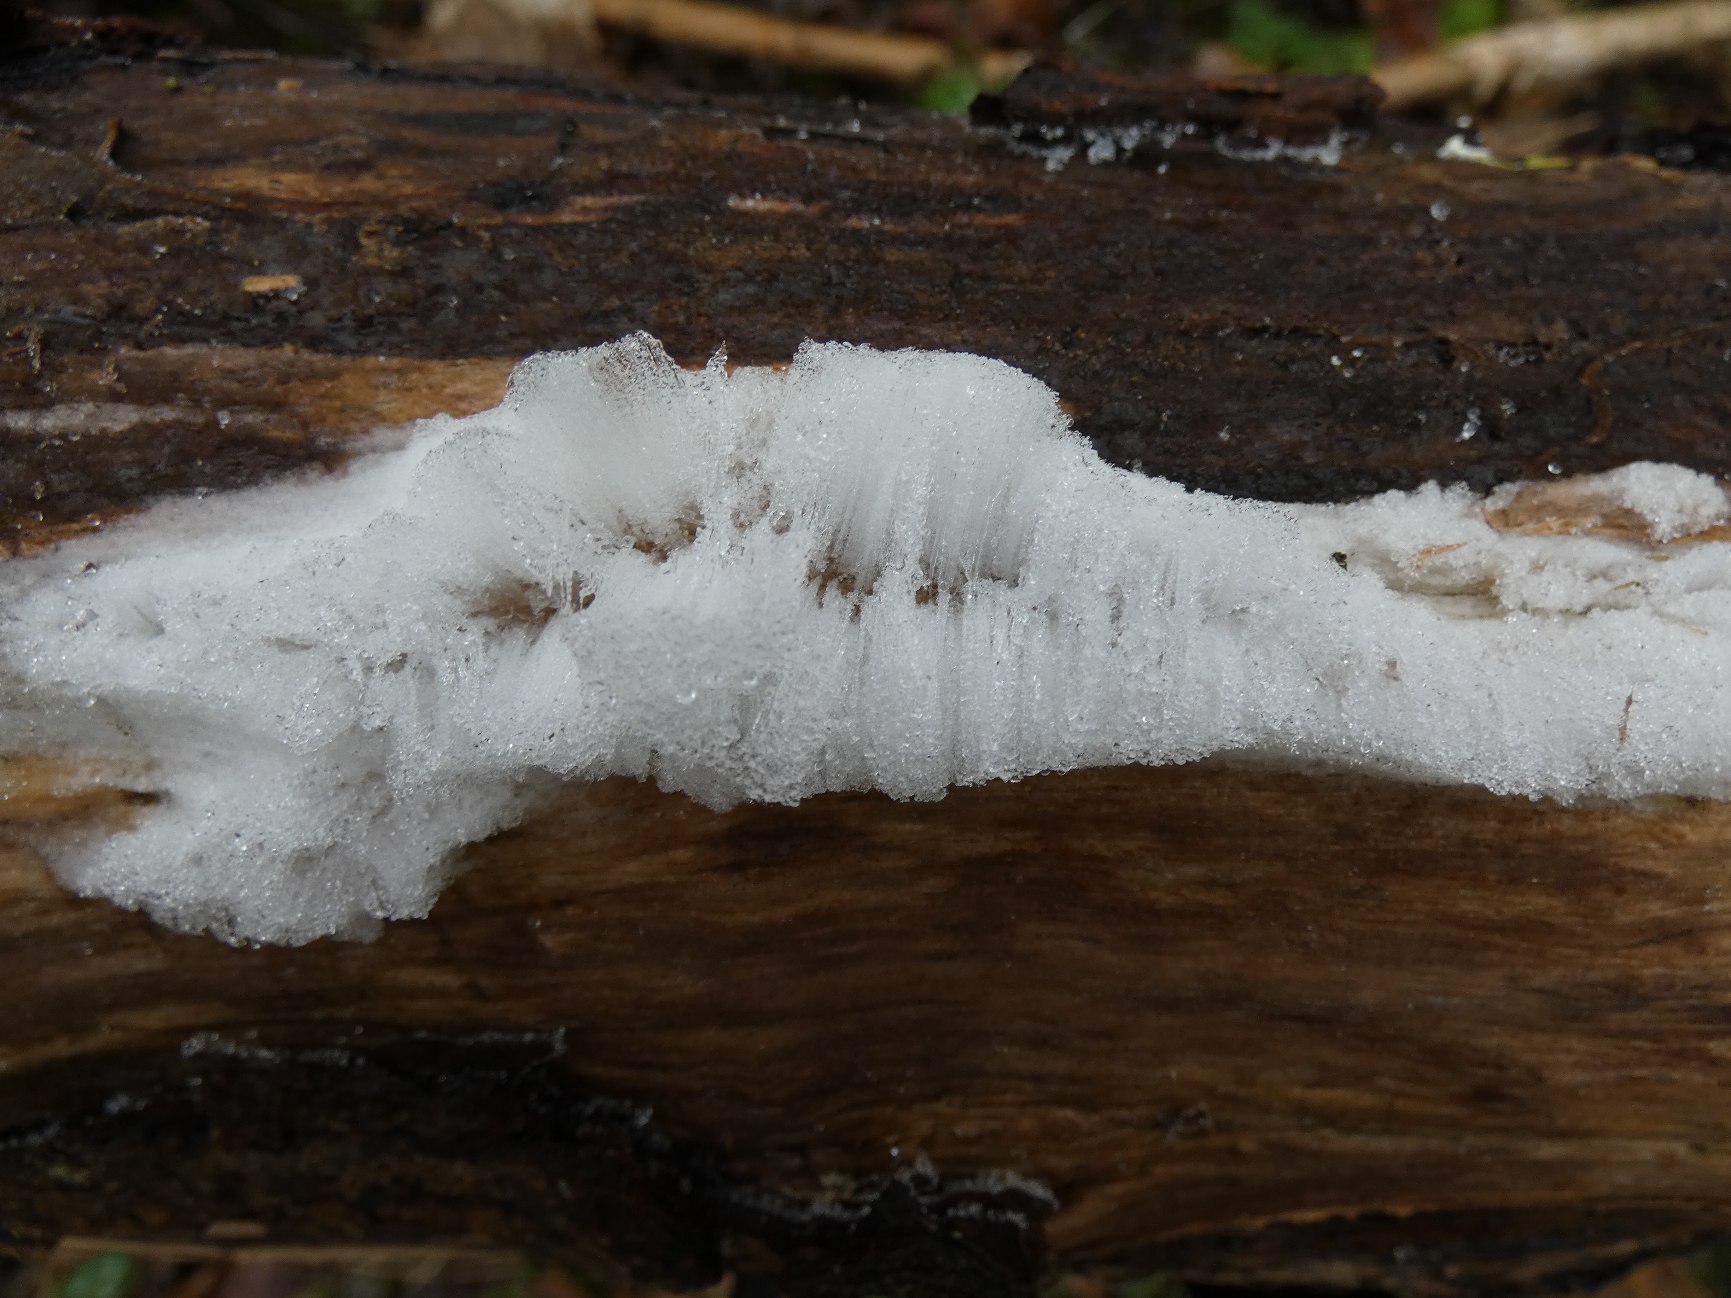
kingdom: Fungi
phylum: Basidiomycota
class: Tremellomycetes
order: Tremellales
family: Exidiaceae
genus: Exidiopsis
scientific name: Exidiopsis effusa
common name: Smuk bævrehinde
